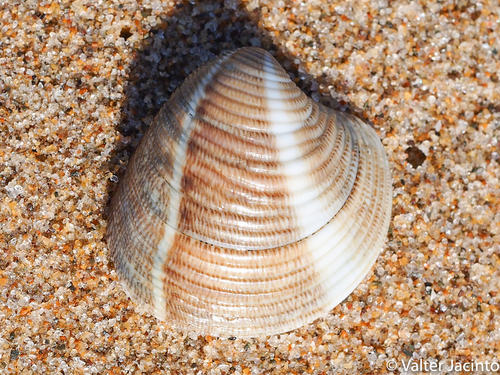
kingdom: Animalia
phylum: Mollusca
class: Bivalvia
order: Venerida
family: Veneridae
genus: Chamelea
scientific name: Chamelea gallina
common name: Chicken venus
